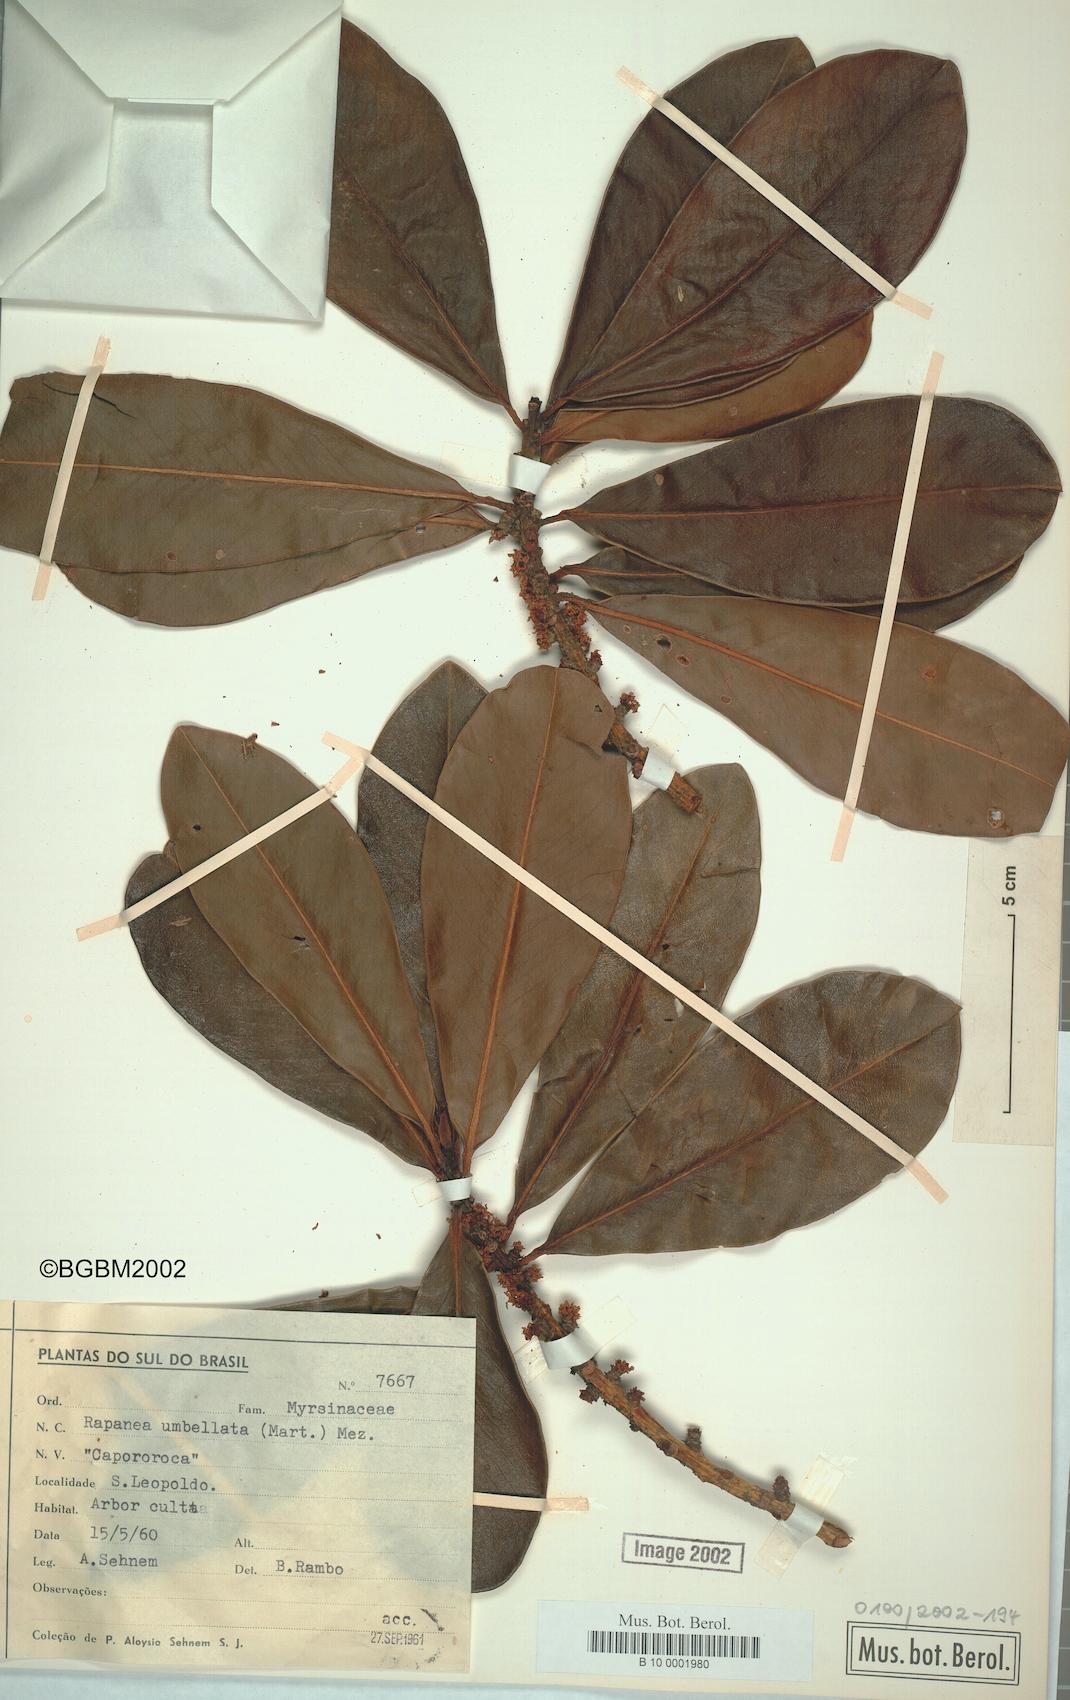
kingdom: Plantae
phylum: Tracheophyta
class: Magnoliopsida
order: Ericales
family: Primulaceae
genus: Myrsine
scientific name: Myrsine umbellata
